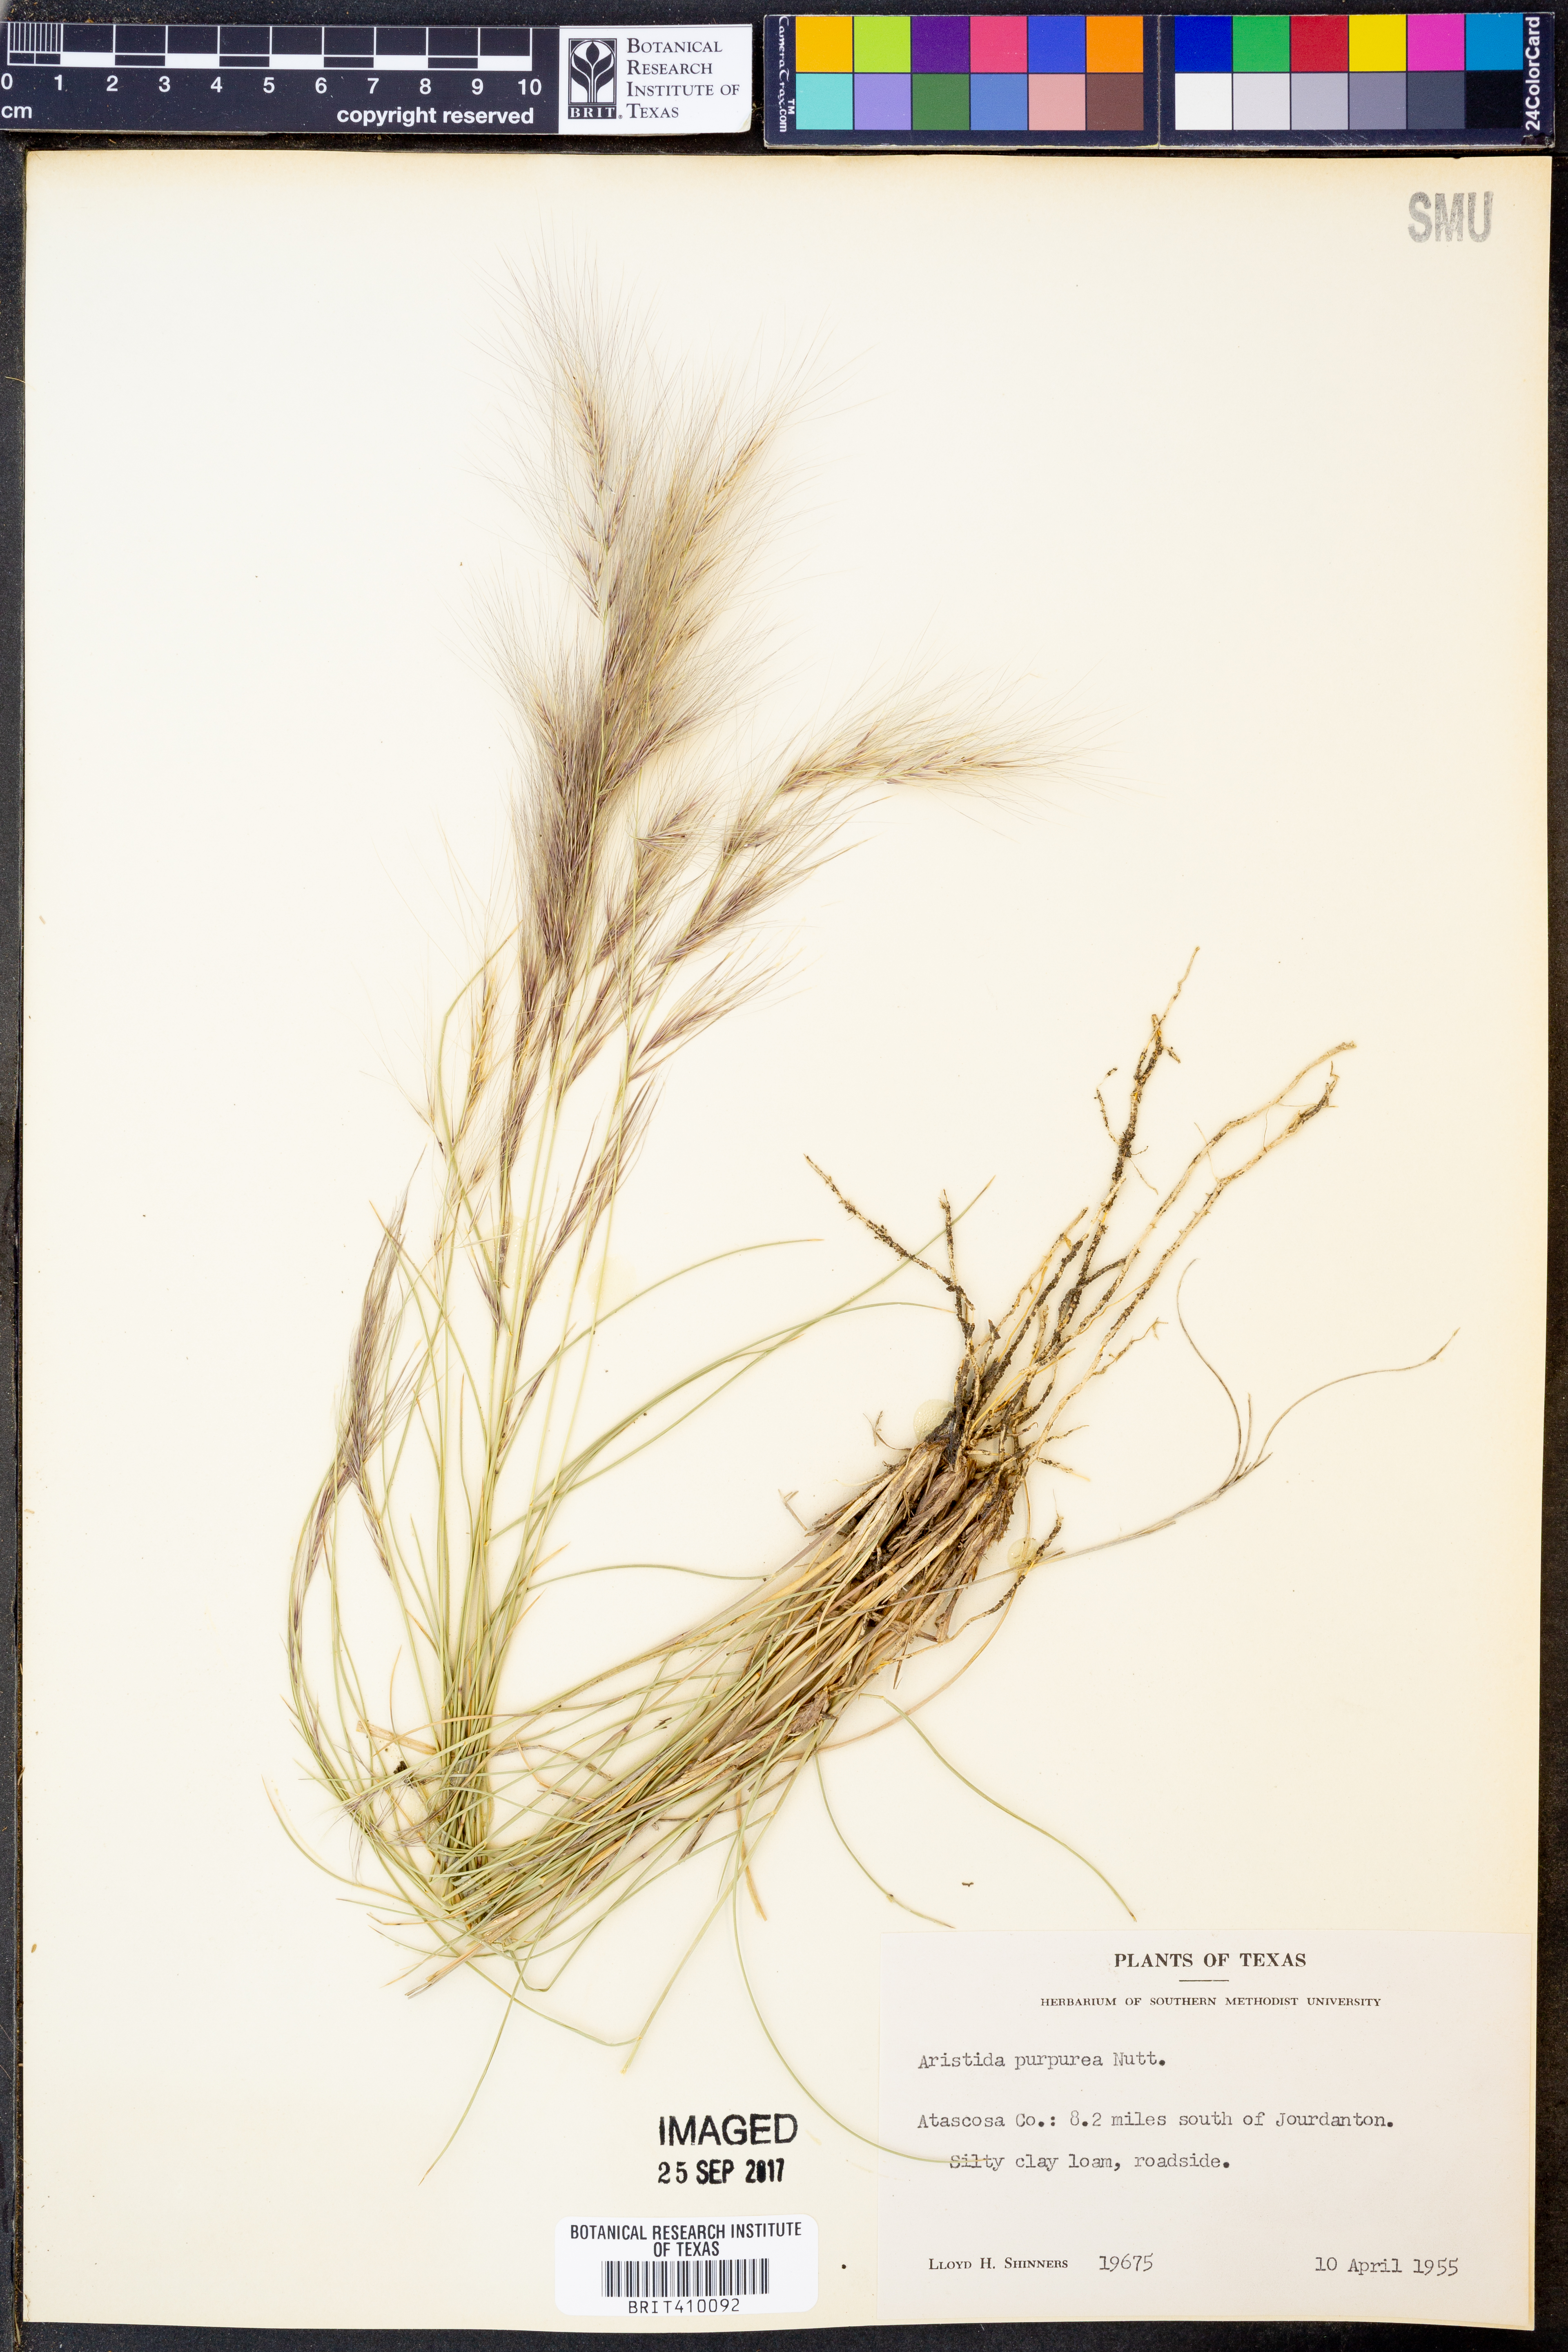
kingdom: Plantae
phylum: Tracheophyta
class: Liliopsida
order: Poales
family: Poaceae
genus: Aristida
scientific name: Aristida purpurea
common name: Purple threeawn
